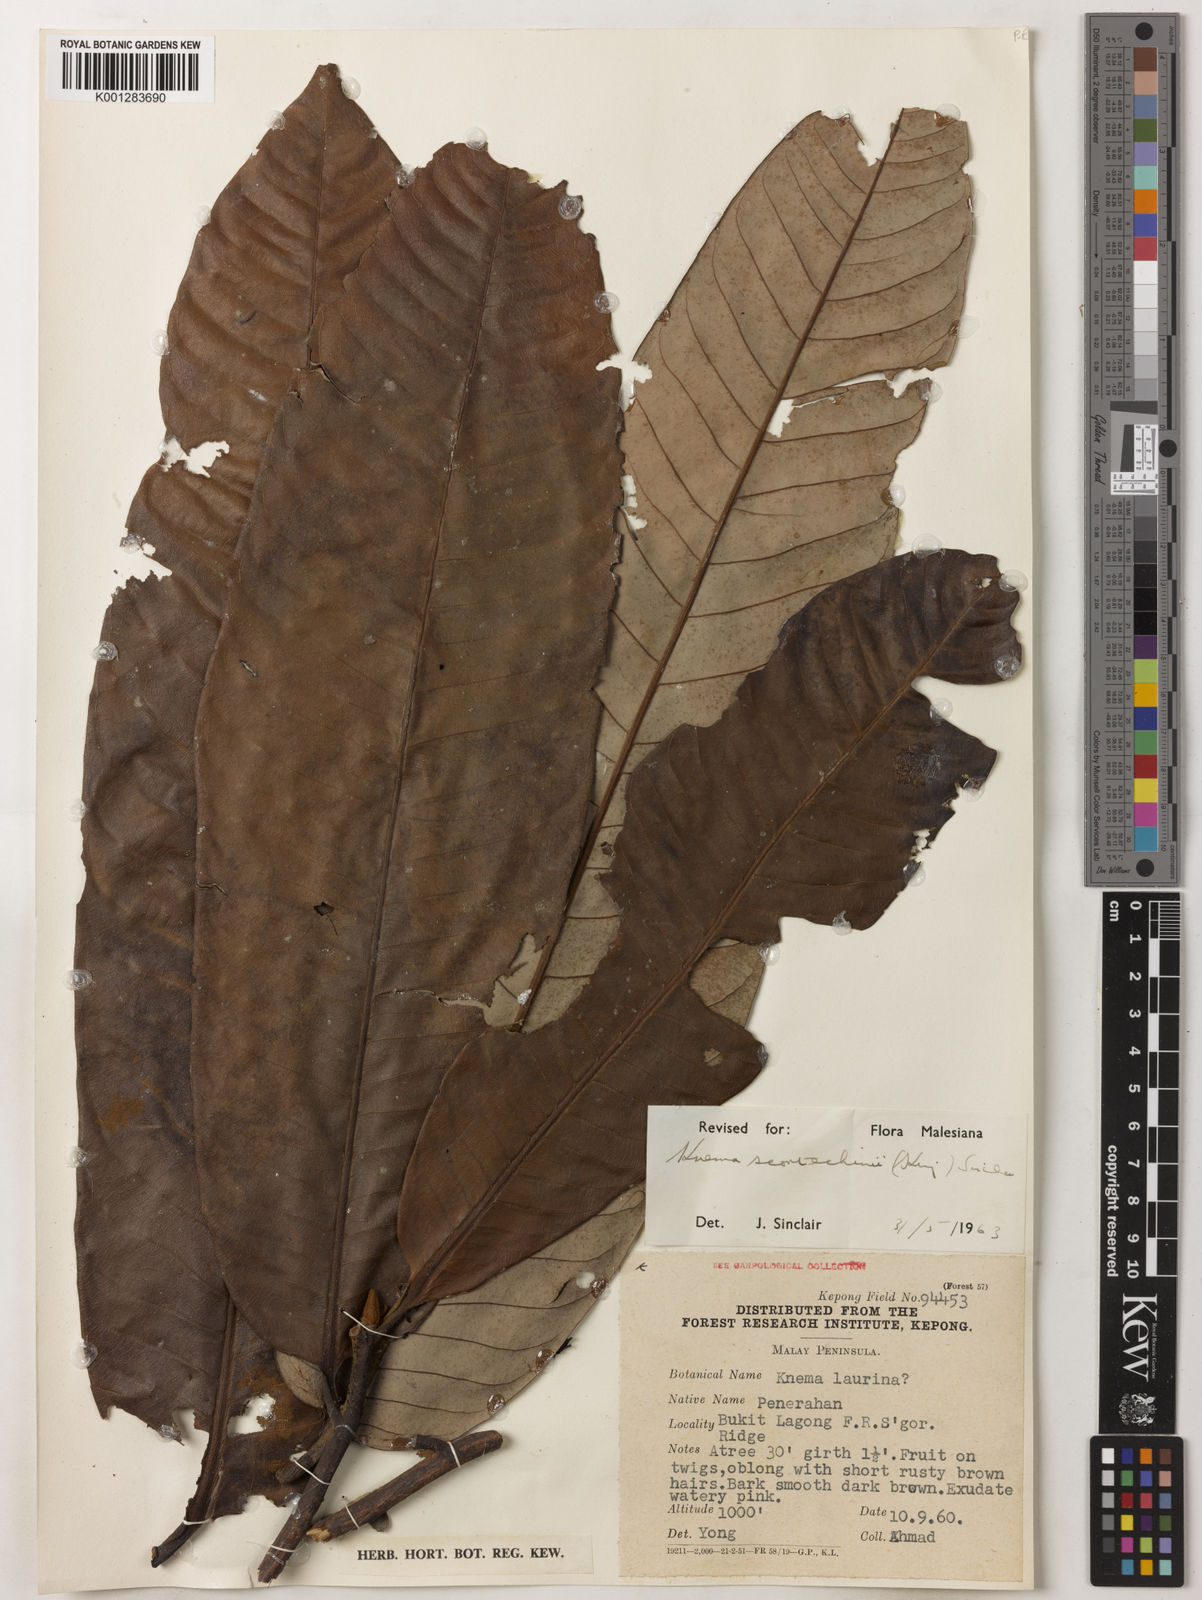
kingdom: Plantae
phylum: Tracheophyta
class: Magnoliopsida
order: Magnoliales
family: Myristicaceae
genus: Knema
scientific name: Knema scortechinii
